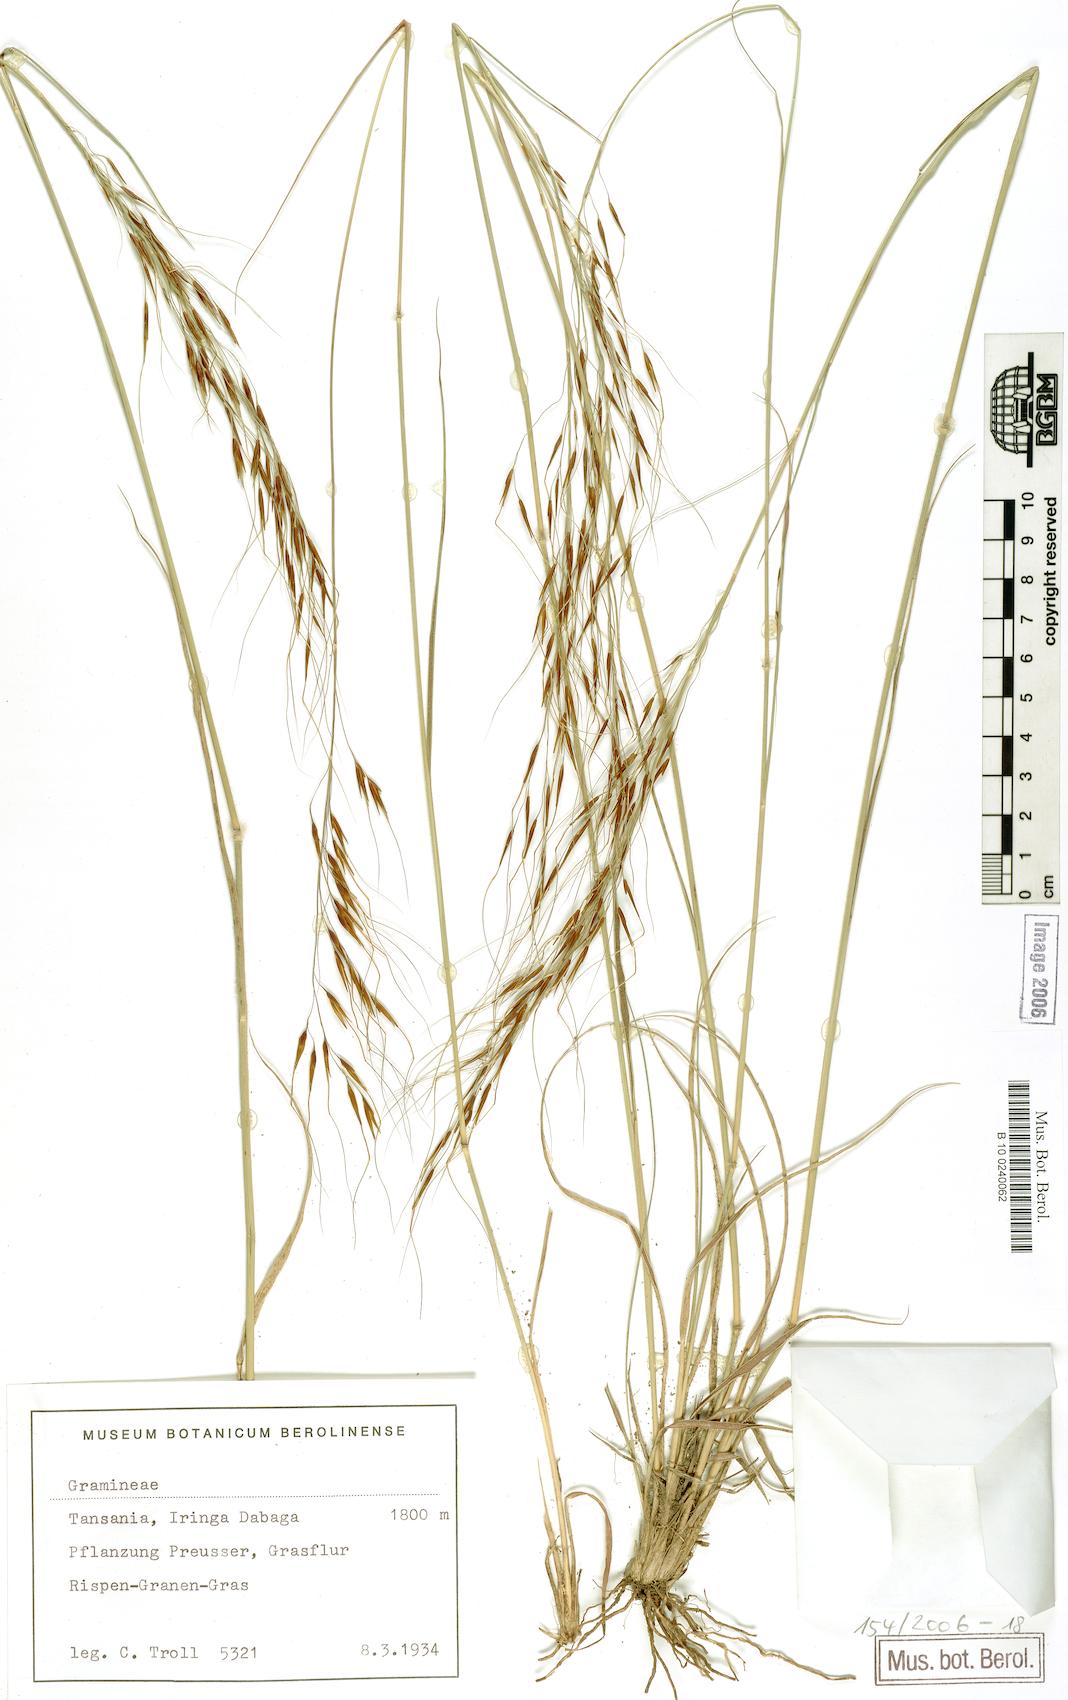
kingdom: Plantae
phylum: Tracheophyta
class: Liliopsida
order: Poales
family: Poaceae
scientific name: Poaceae
